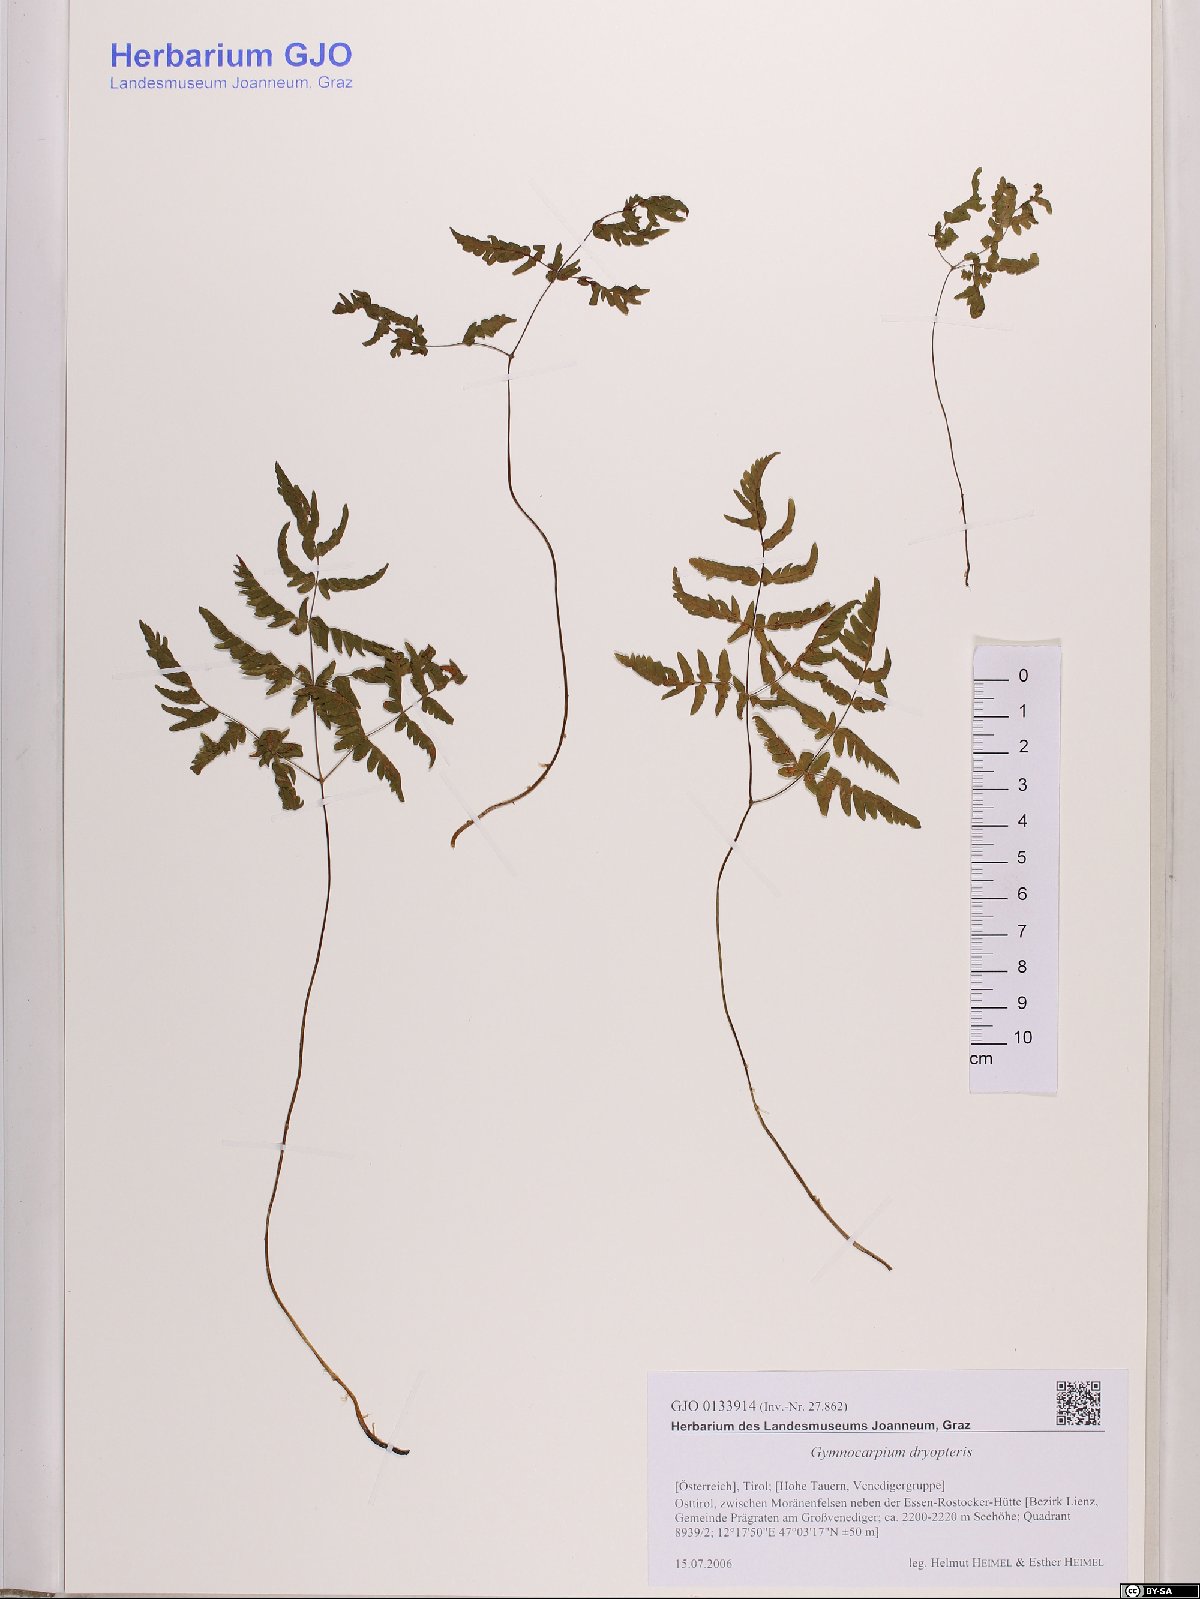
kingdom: Plantae
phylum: Tracheophyta
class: Polypodiopsida
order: Polypodiales
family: Cystopteridaceae
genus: Gymnocarpium
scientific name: Gymnocarpium dryopteris
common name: Oak fern
